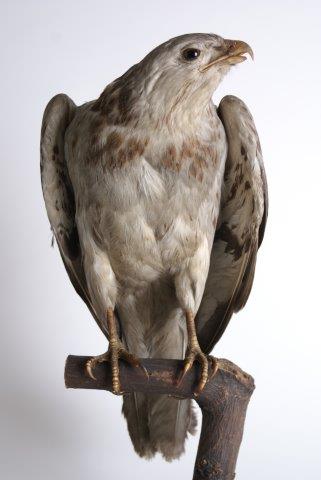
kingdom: Animalia
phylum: Chordata
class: Aves
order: Accipitriformes
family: Accipitridae
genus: Buteo
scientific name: Buteo buteo
